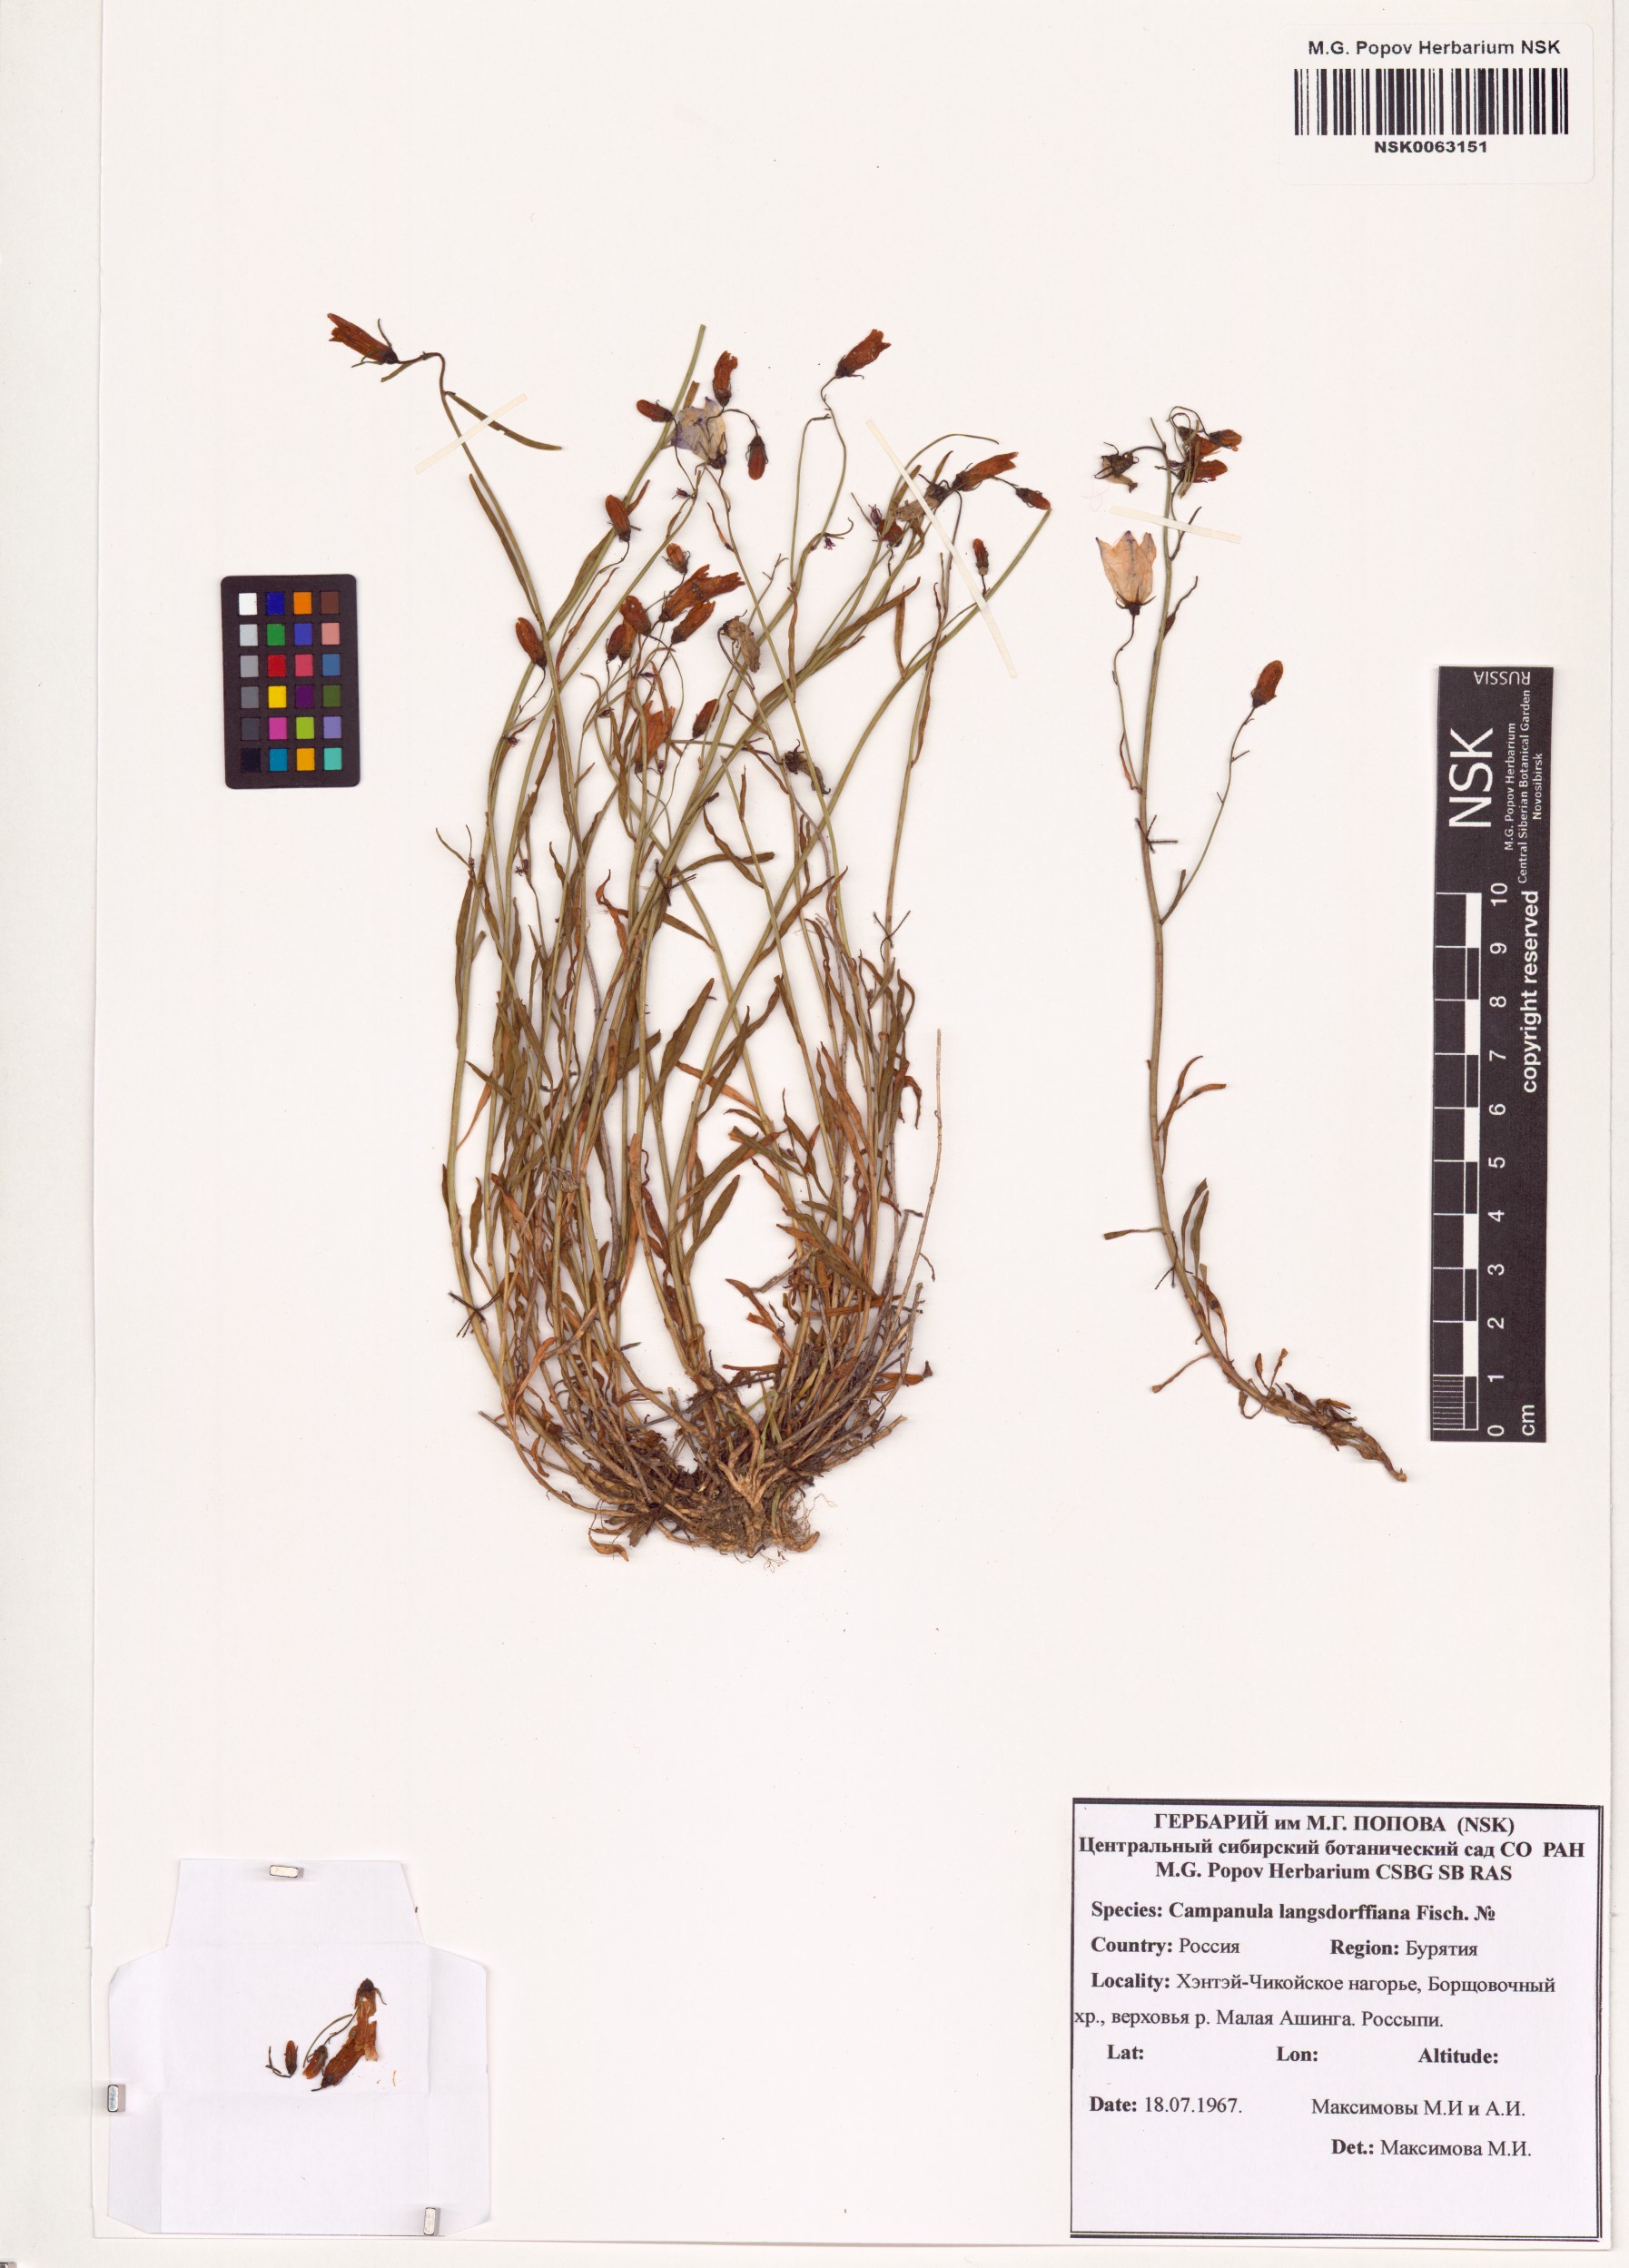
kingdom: Plantae
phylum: Tracheophyta
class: Magnoliopsida
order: Asterales
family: Campanulaceae
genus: Campanula
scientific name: Campanula rotundifolia
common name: Harebell
